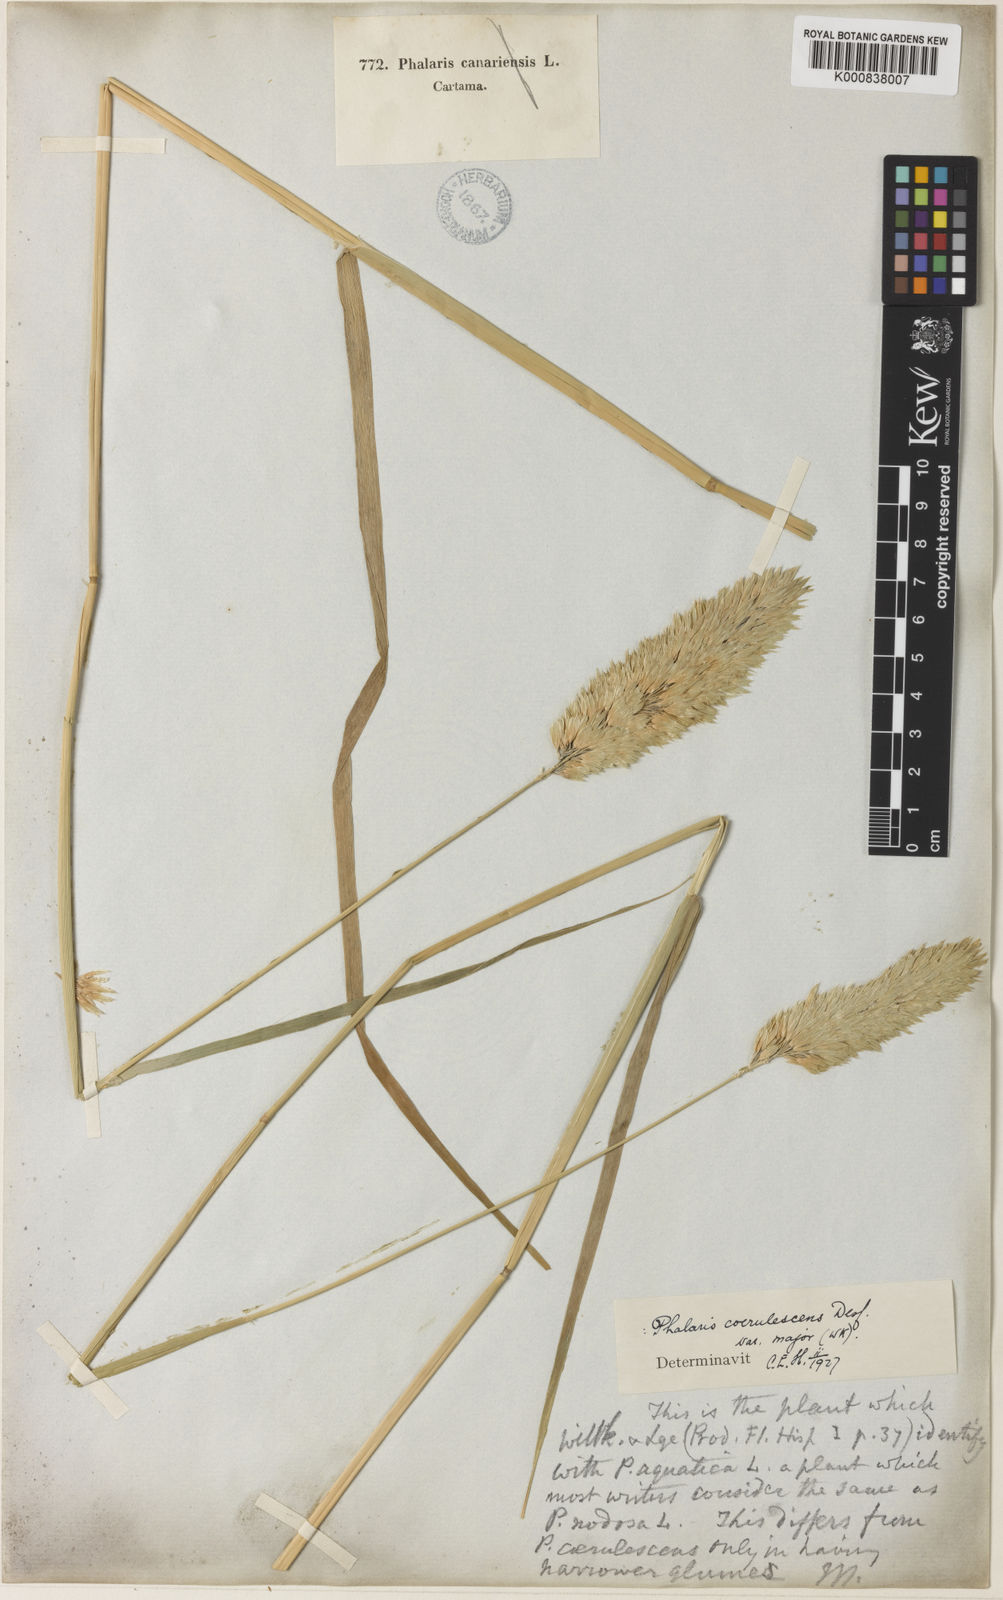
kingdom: Plantae
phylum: Tracheophyta
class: Liliopsida
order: Poales
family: Poaceae
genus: Phalaris
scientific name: Phalaris coerulescens
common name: Sunolgrass
